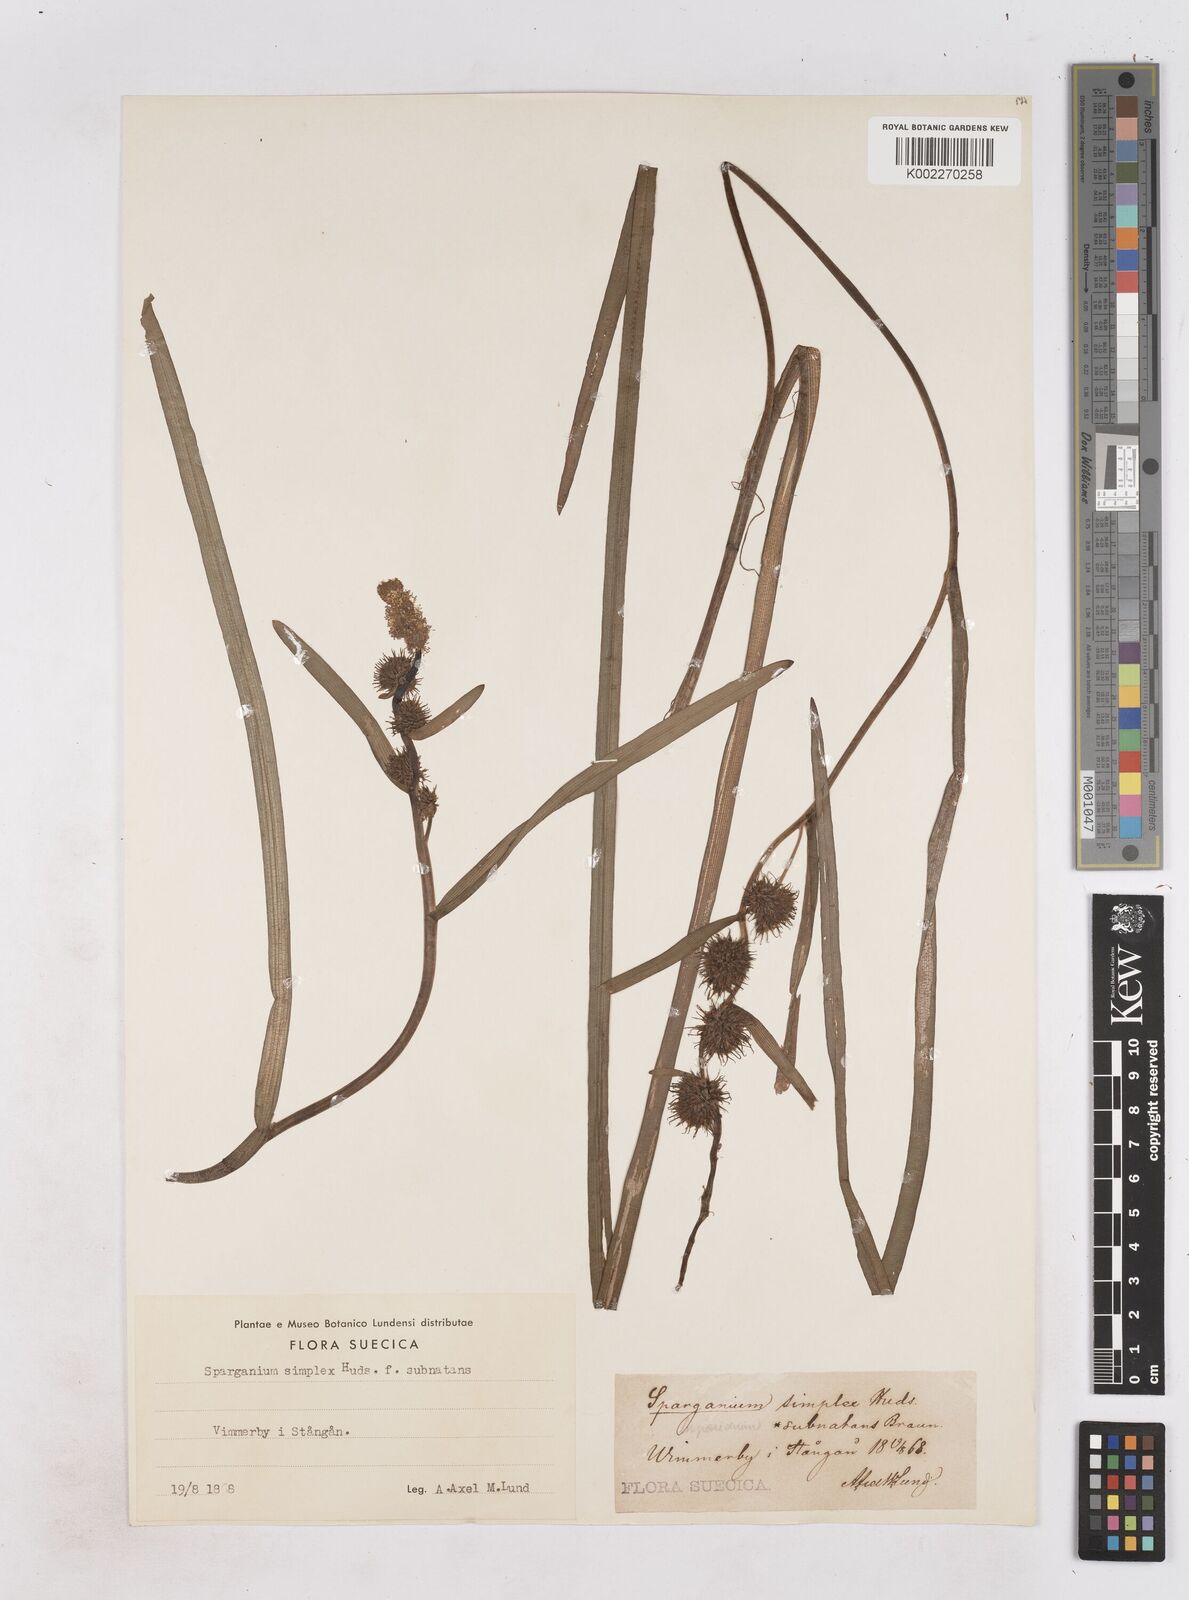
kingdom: Plantae
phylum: Tracheophyta
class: Liliopsida
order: Poales
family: Typhaceae
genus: Sparganium
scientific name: Sparganium emersum
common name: Unbranched bur-reed
